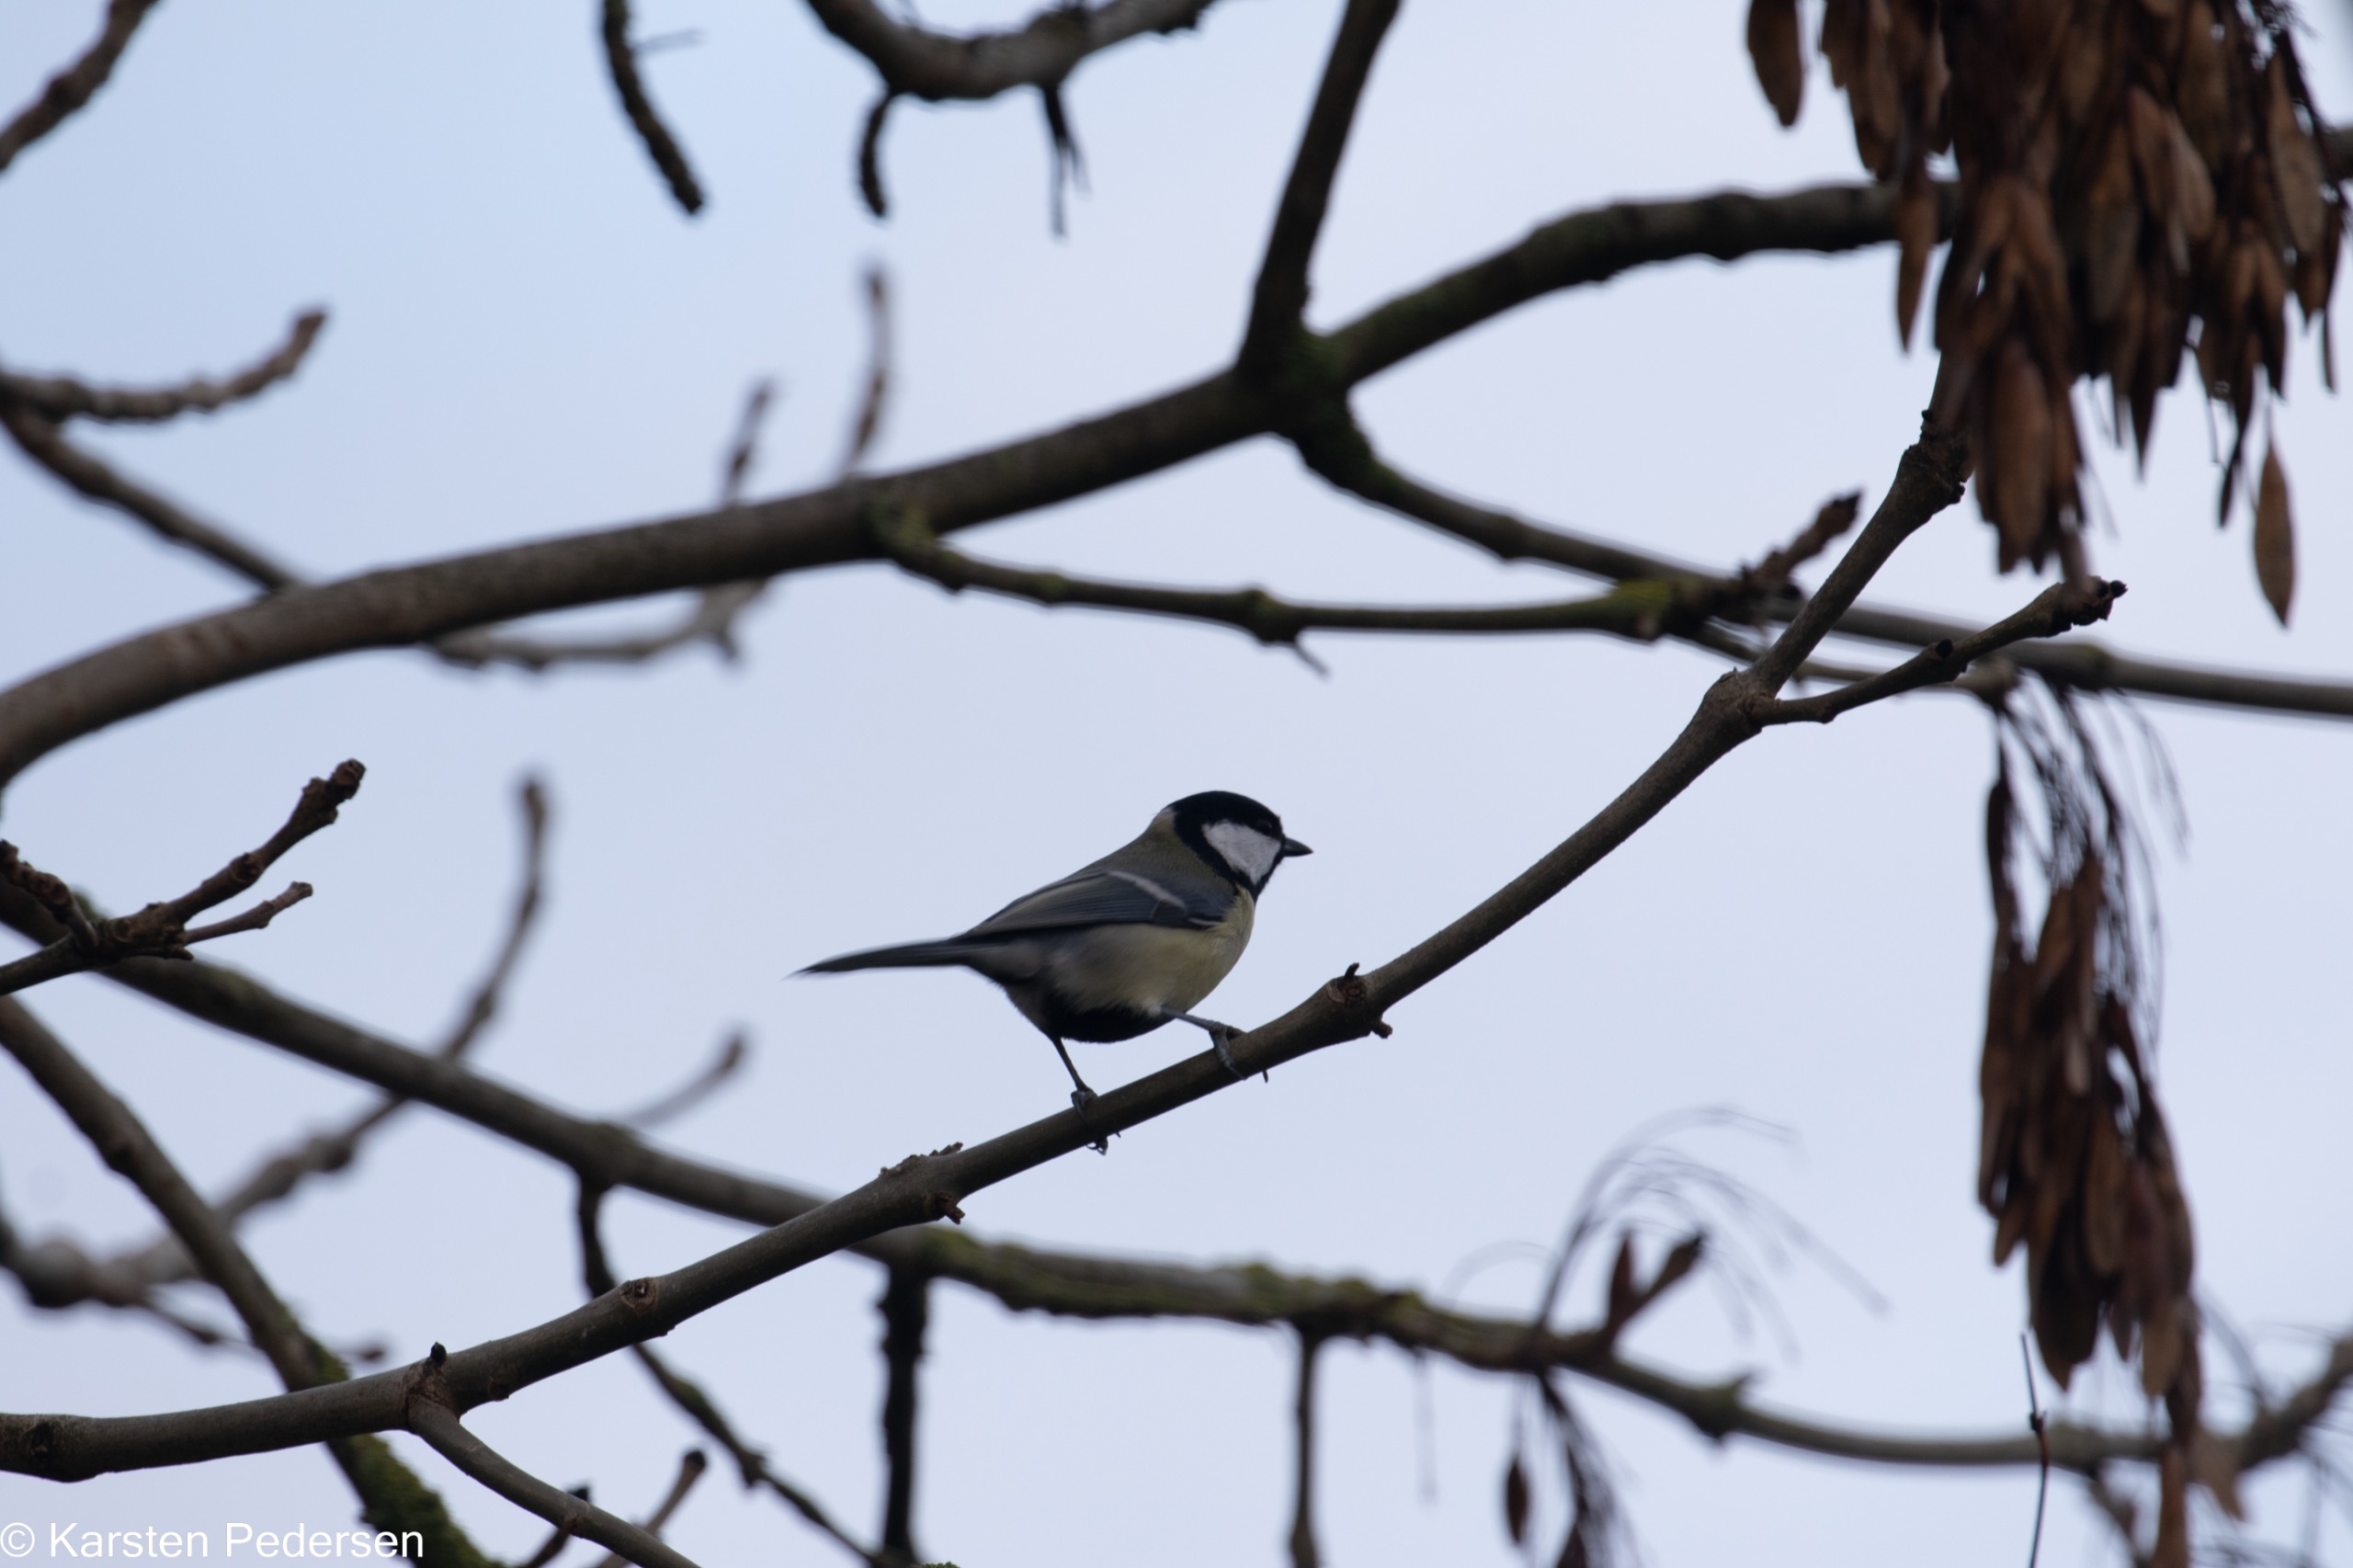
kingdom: Animalia
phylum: Chordata
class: Aves
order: Passeriformes
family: Paridae
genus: Parus
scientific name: Parus major
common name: Musvit
